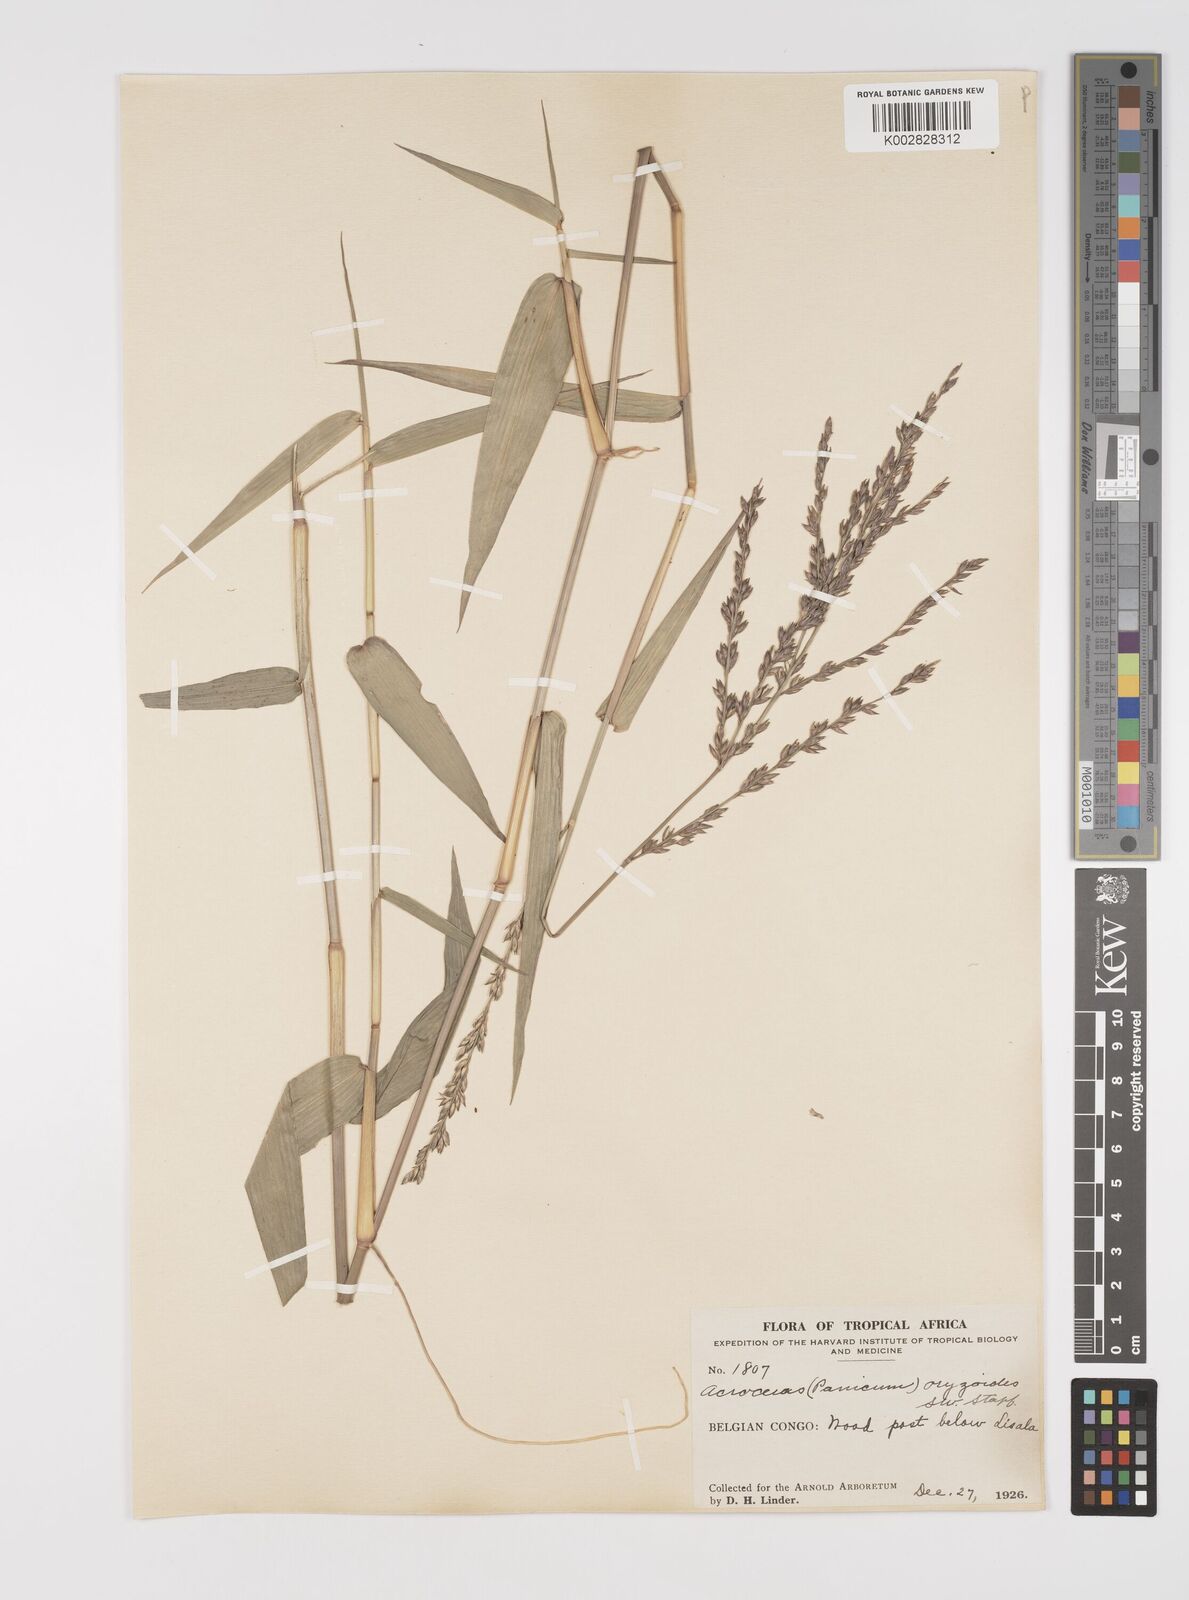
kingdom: Plantae
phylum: Tracheophyta
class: Liliopsida
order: Poales
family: Poaceae
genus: Acroceras
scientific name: Acroceras zizanioides
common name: Oat grass
